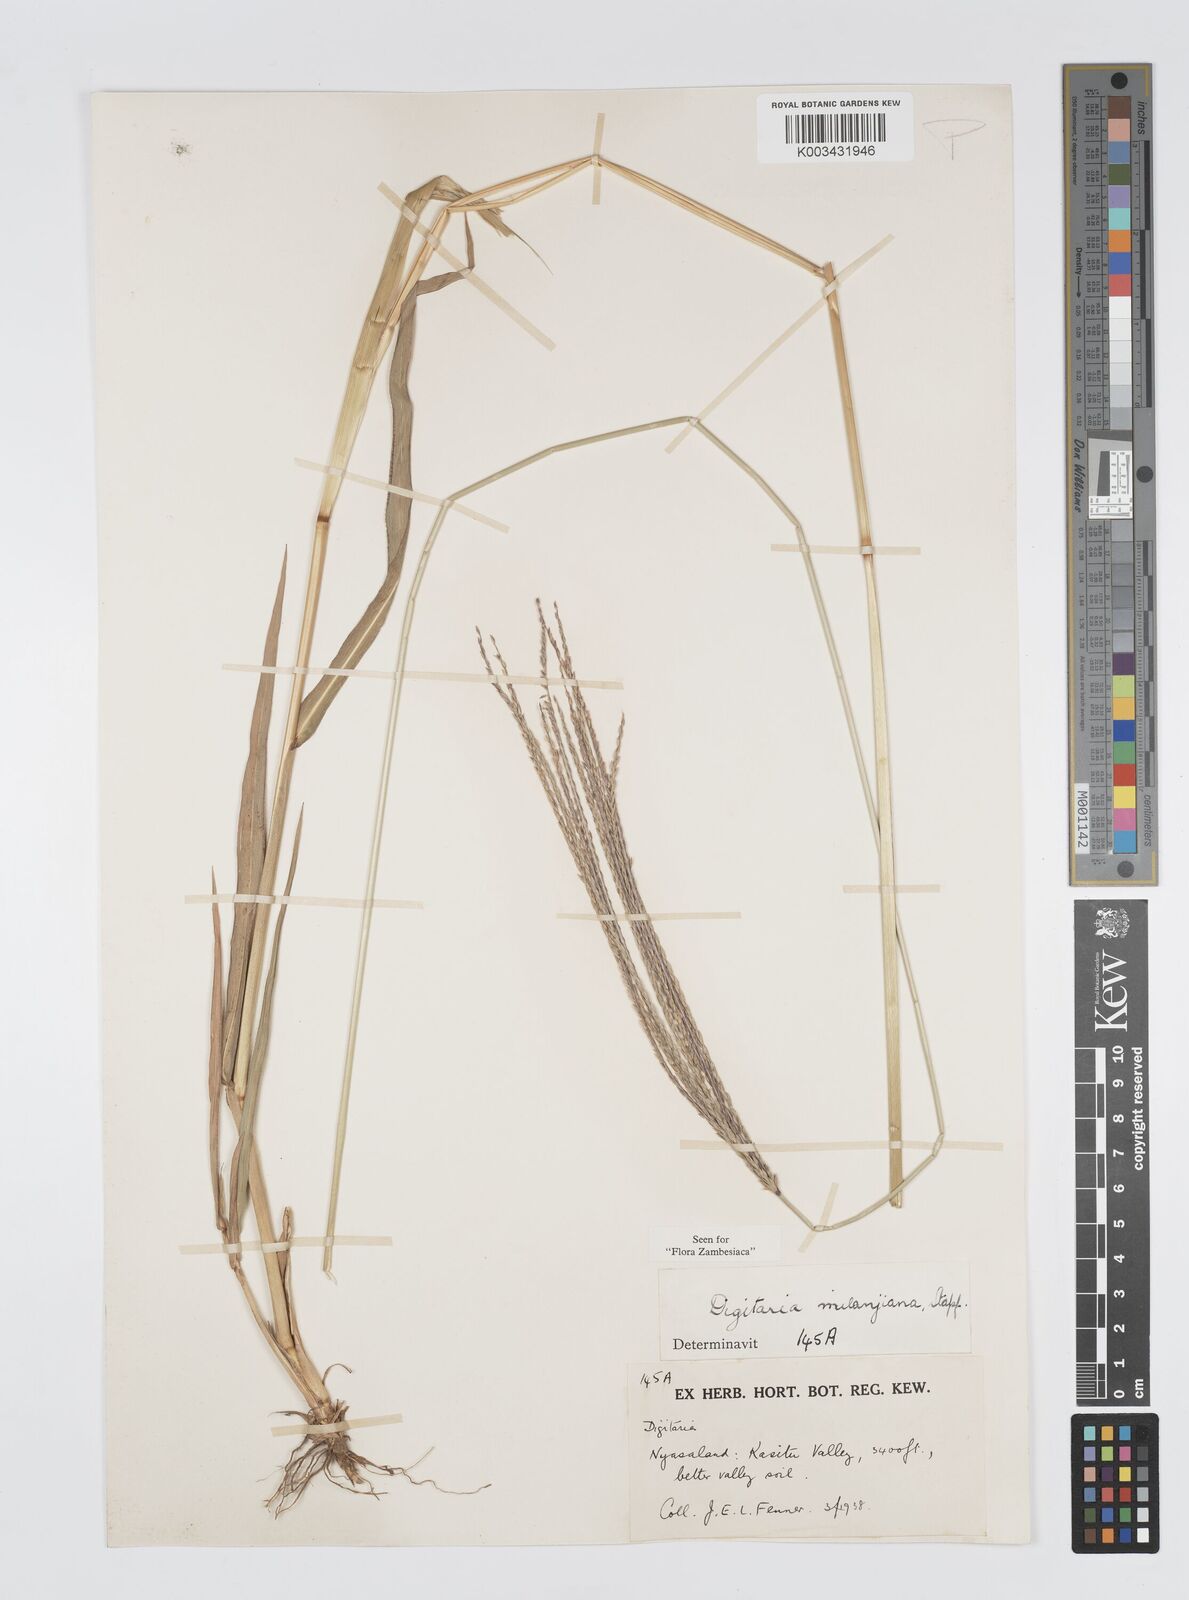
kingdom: Plantae
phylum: Tracheophyta
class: Liliopsida
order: Poales
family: Poaceae
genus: Digitaria
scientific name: Digitaria milanjiana
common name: Madagascar crabgrass
